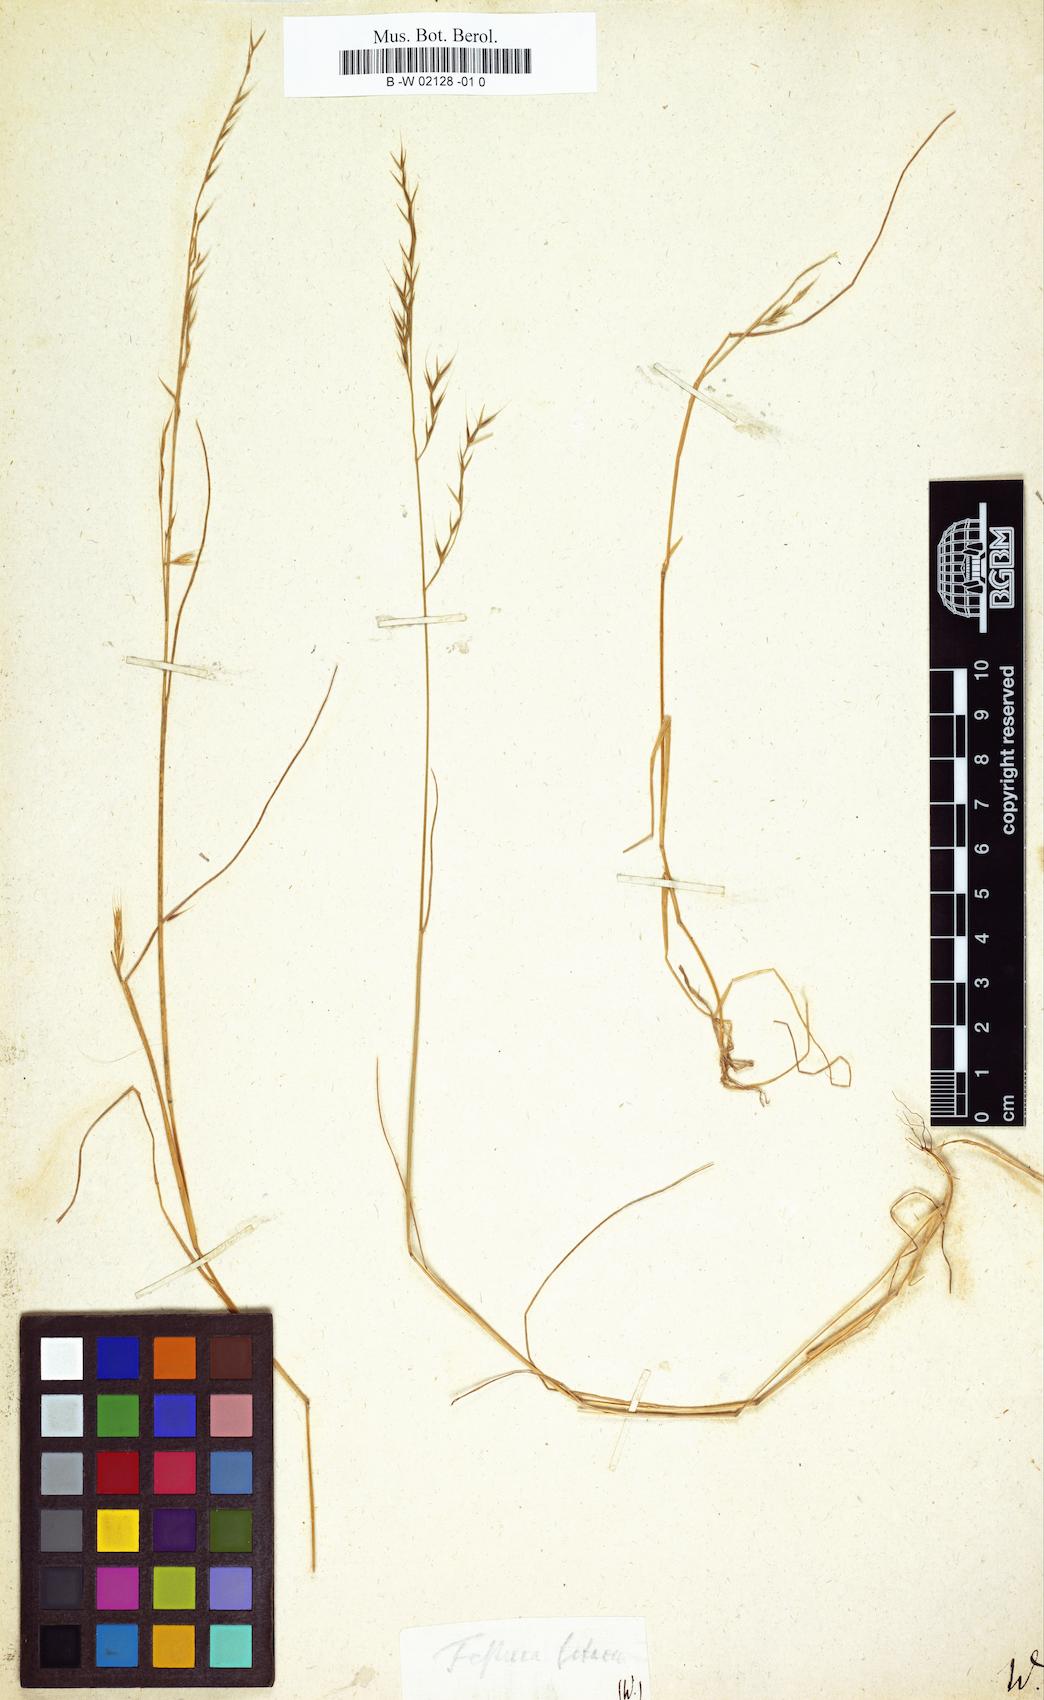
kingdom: Plantae
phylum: Tracheophyta
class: Liliopsida
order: Poales
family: Poaceae
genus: Festuca
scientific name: Festuca
